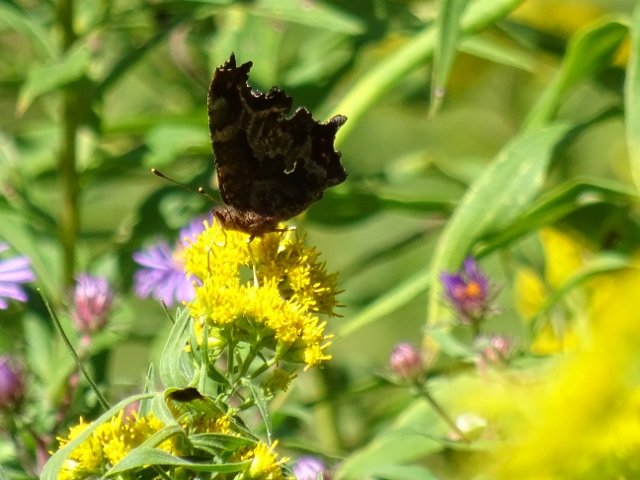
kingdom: Animalia
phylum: Arthropoda
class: Insecta
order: Lepidoptera
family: Nymphalidae
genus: Polygonia
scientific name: Polygonia comma
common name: Eastern Comma
